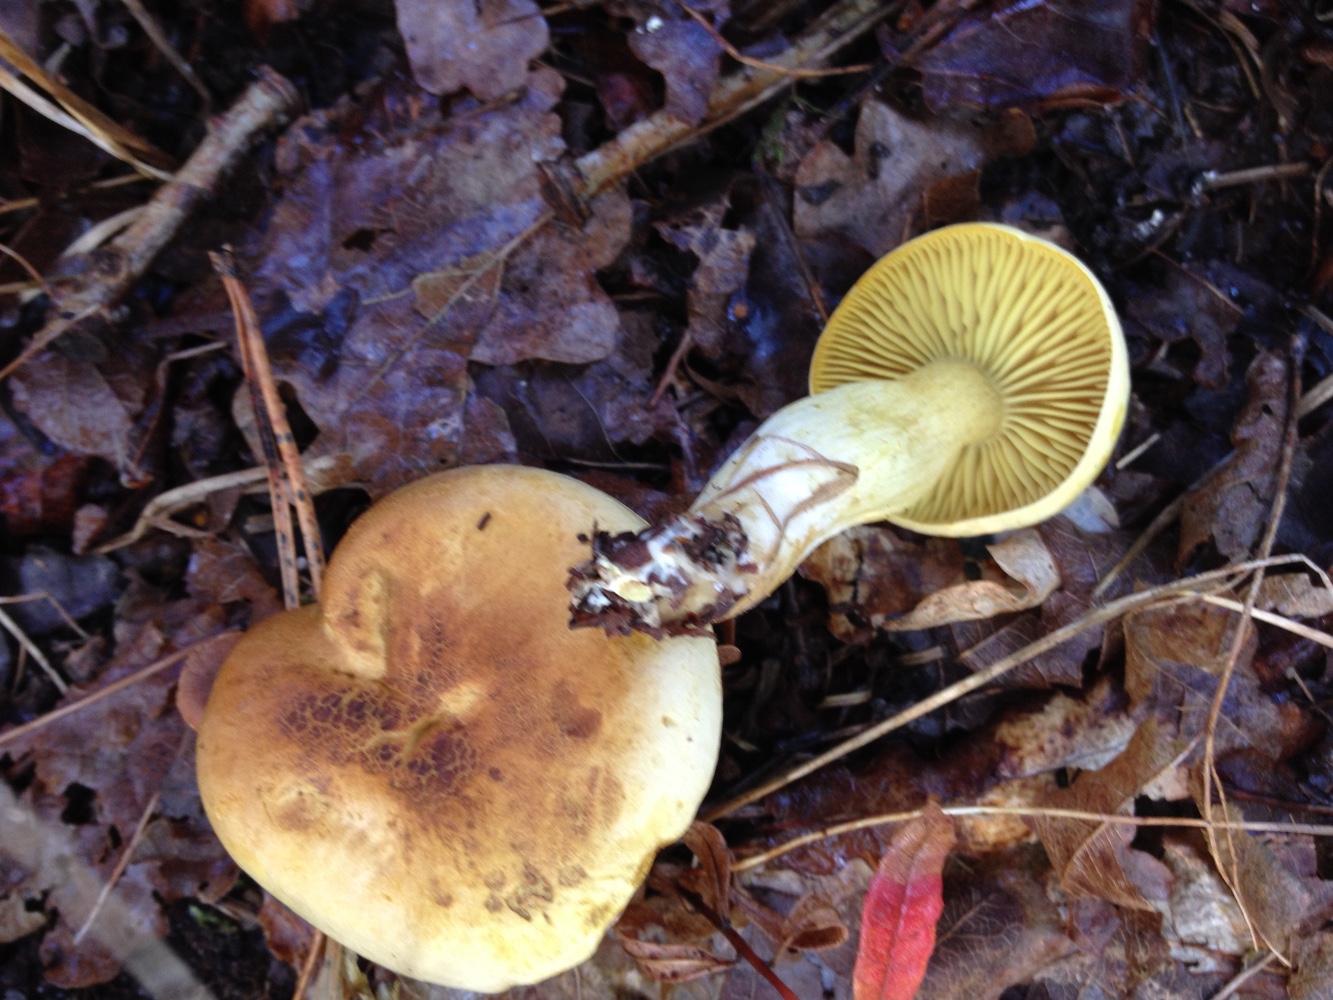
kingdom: Fungi
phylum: Basidiomycota
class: Agaricomycetes
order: Agaricales
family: Tricholomataceae
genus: Tricholoma
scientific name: Tricholoma sulphureum
